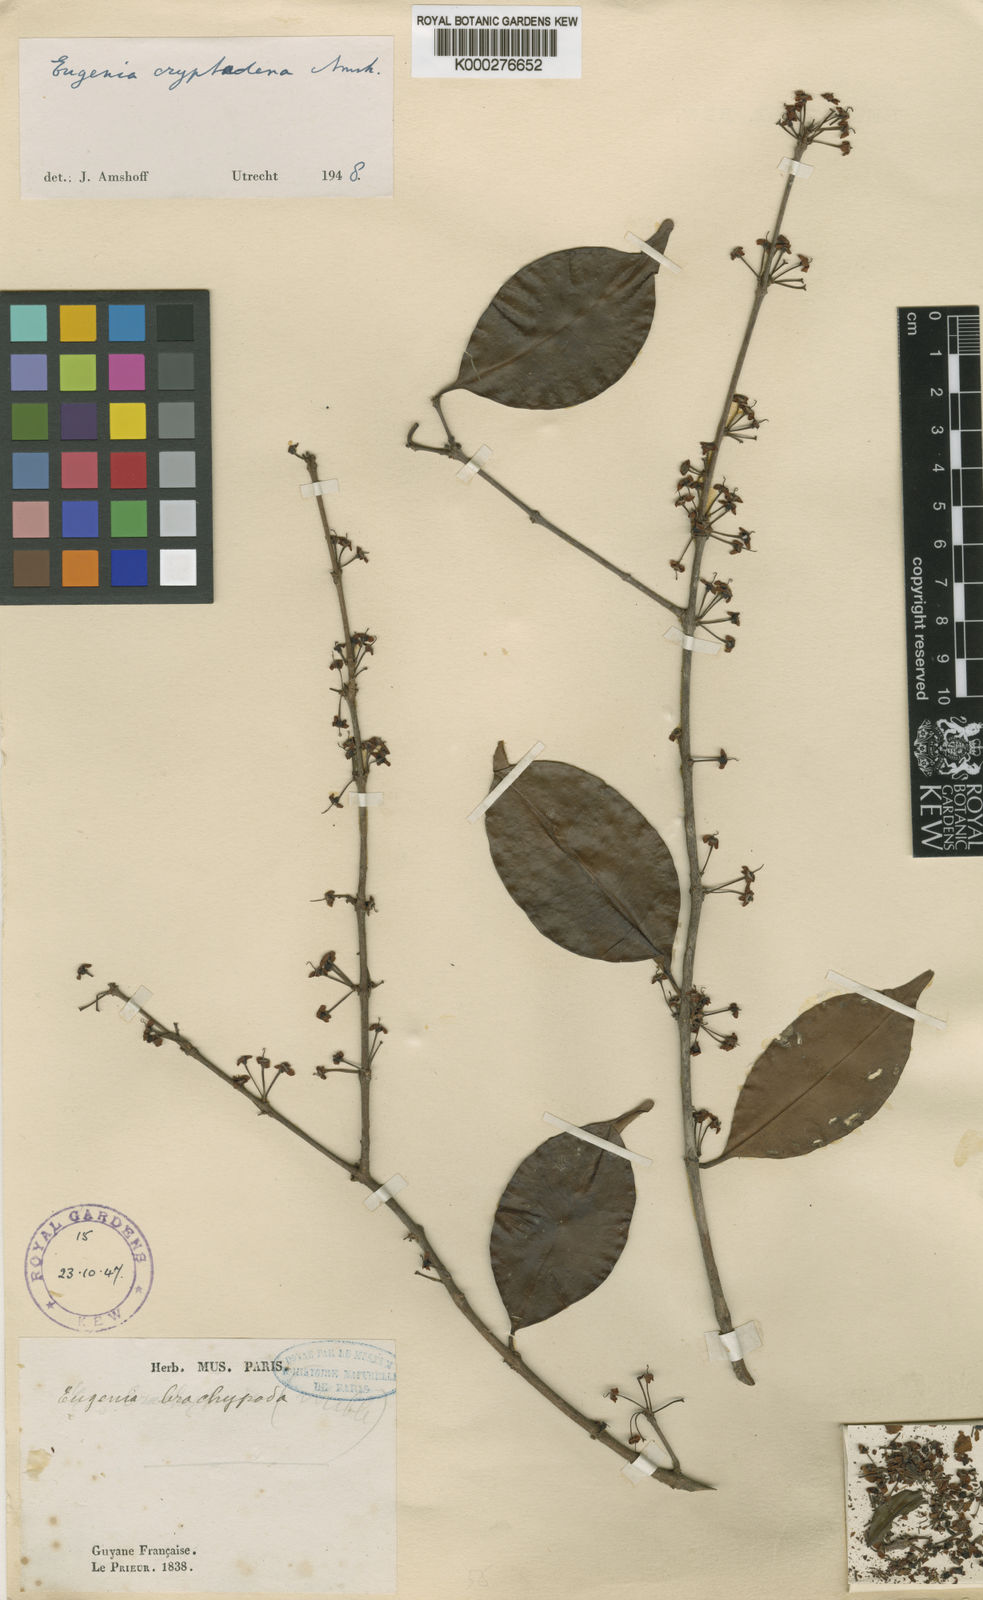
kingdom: Plantae
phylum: Tracheophyta
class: Magnoliopsida
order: Myrtales
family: Myrtaceae
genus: Eugenia
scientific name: Eugenia pseudopsidium
